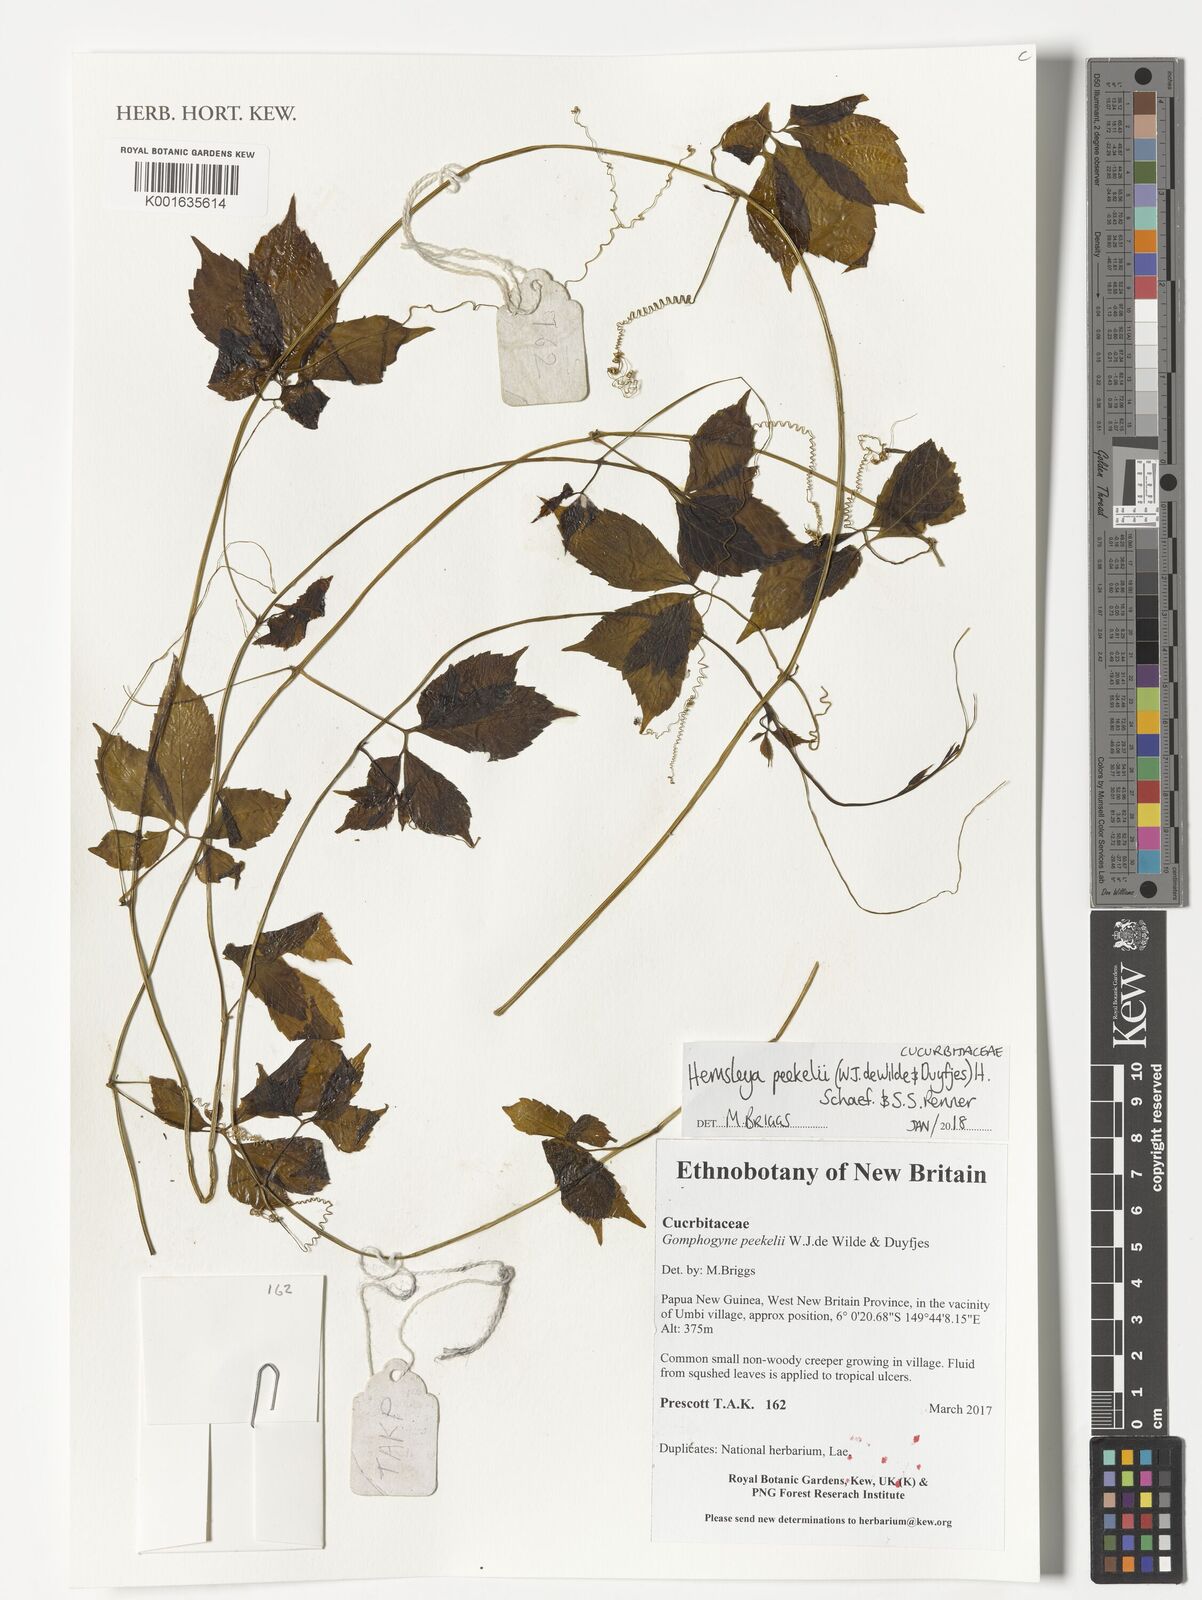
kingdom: Plantae
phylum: Tracheophyta
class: Magnoliopsida
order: Cucurbitales
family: Cucurbitaceae
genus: Hemsleya
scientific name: Hemsleya peekelii
